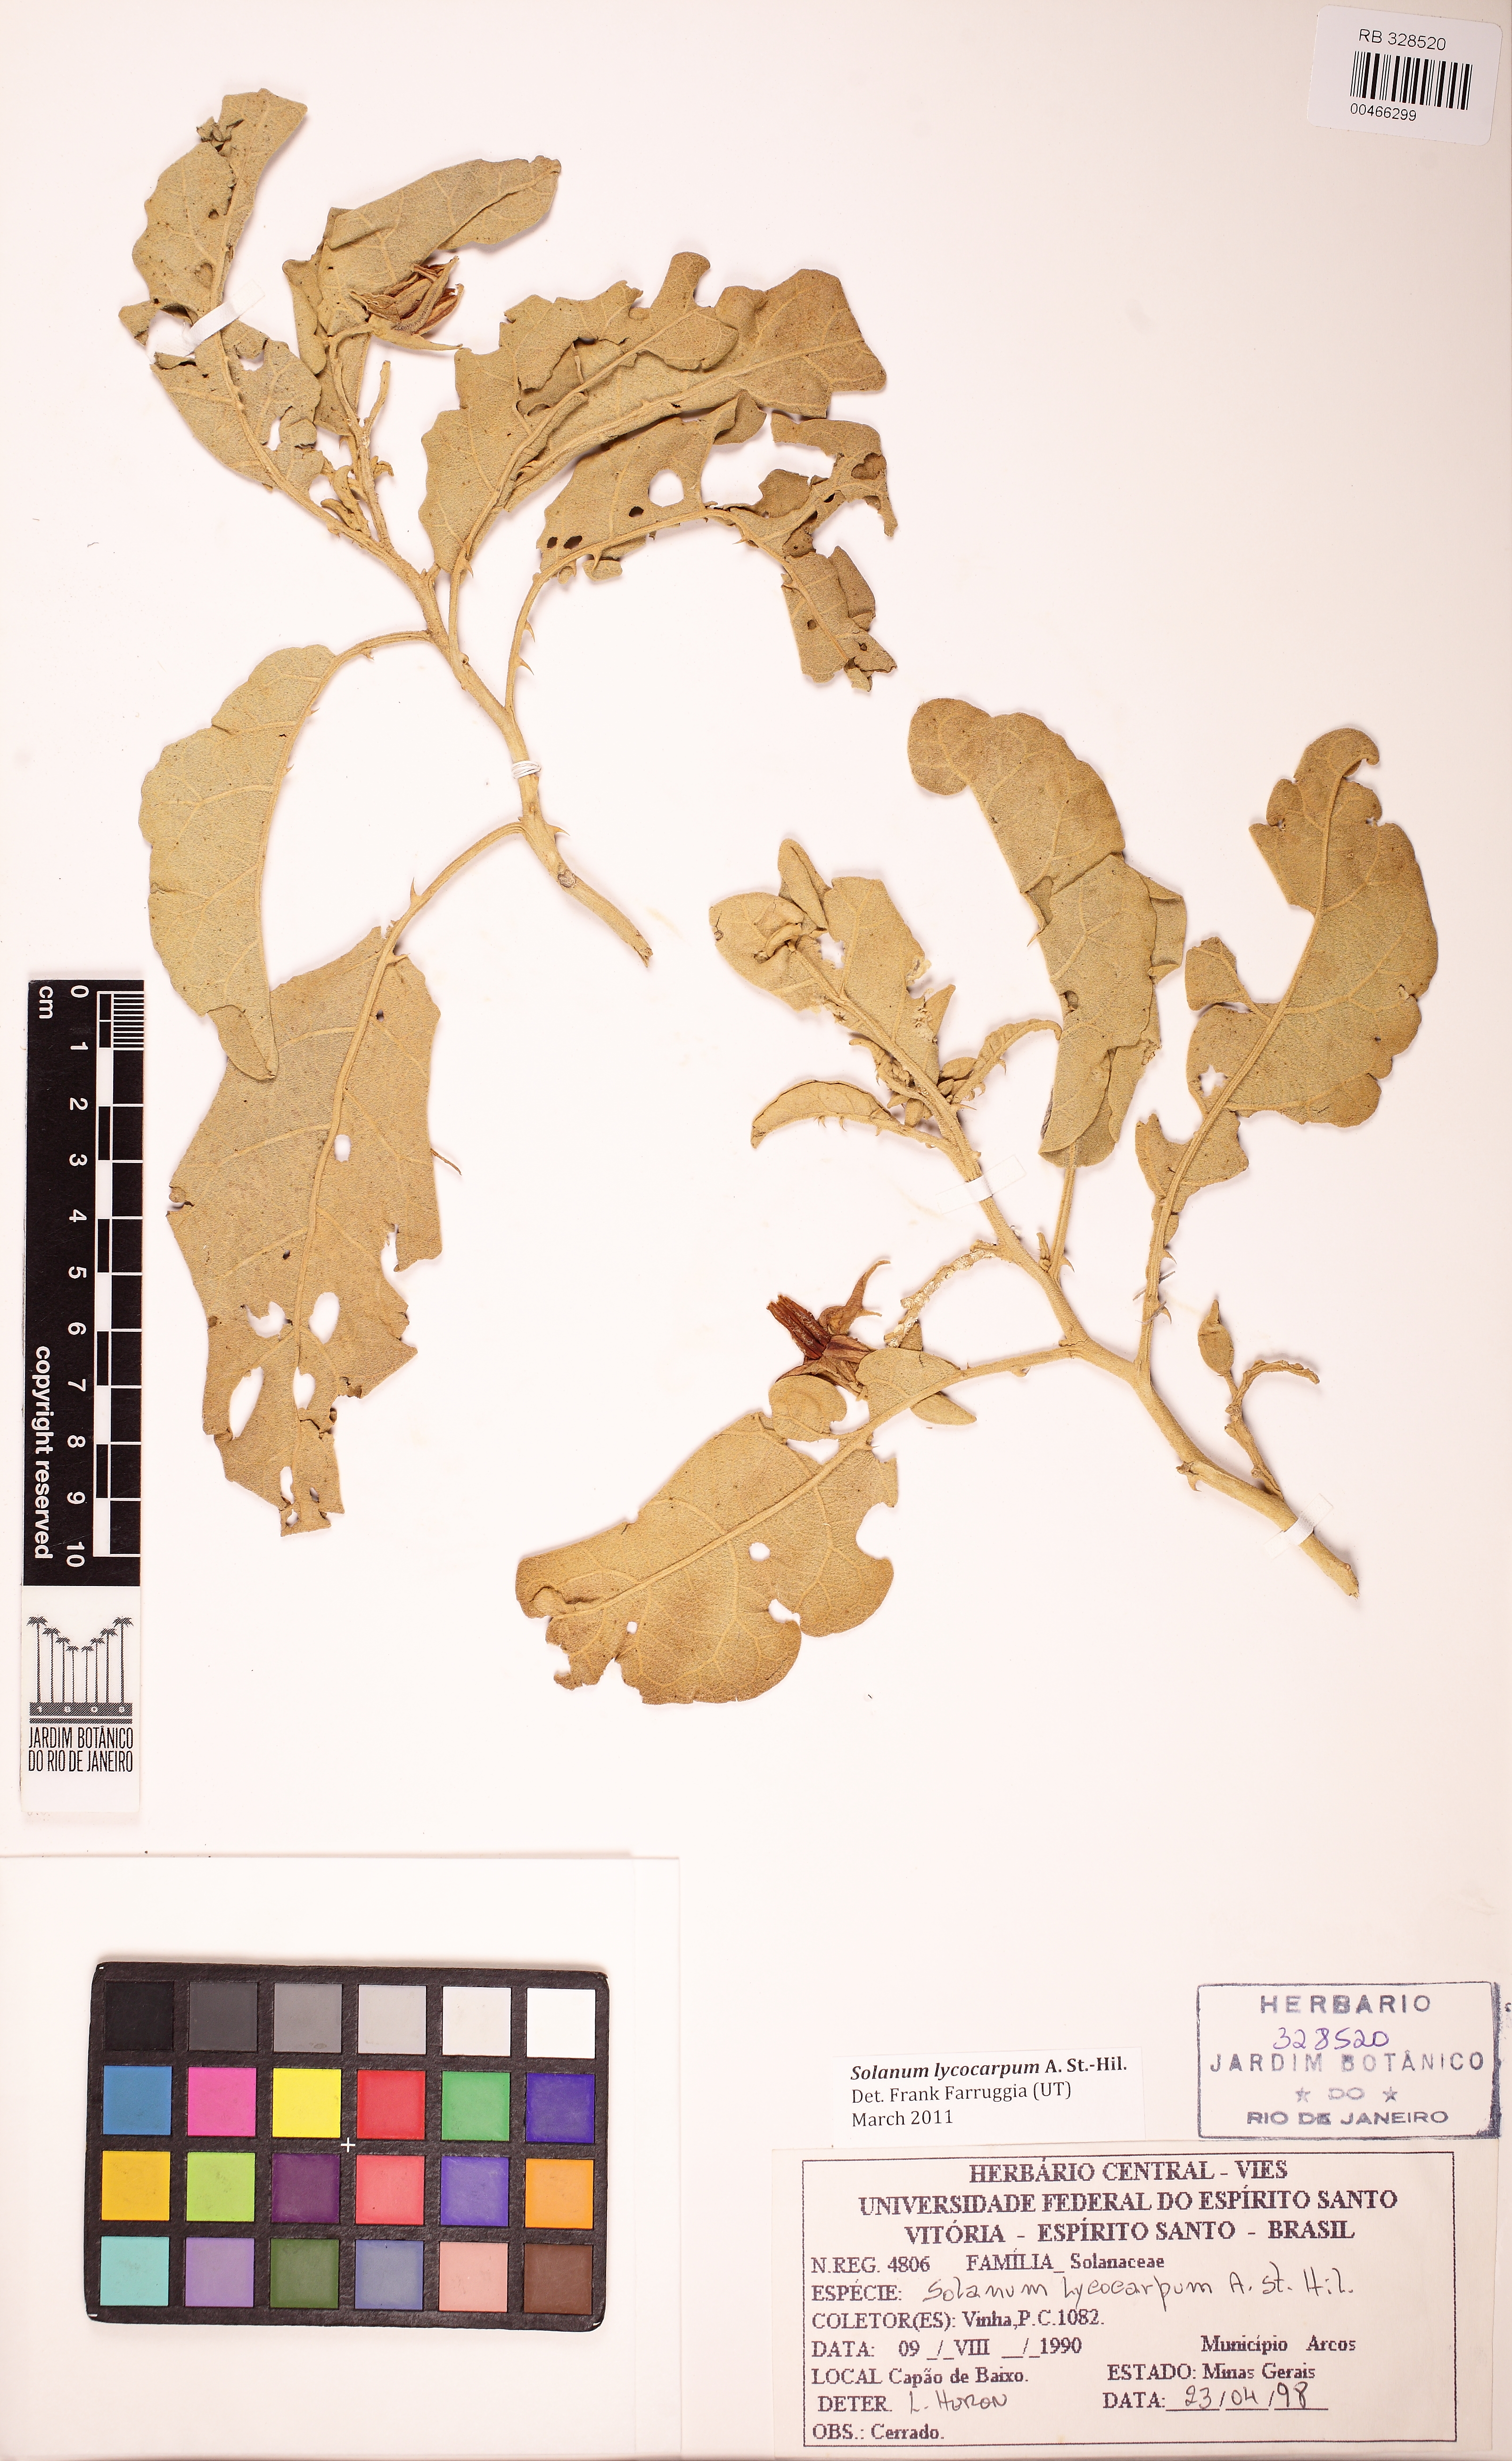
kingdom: Plantae
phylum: Tracheophyta
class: Magnoliopsida
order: Solanales
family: Solanaceae
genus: Solanum
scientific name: Solanum lycocarpum
